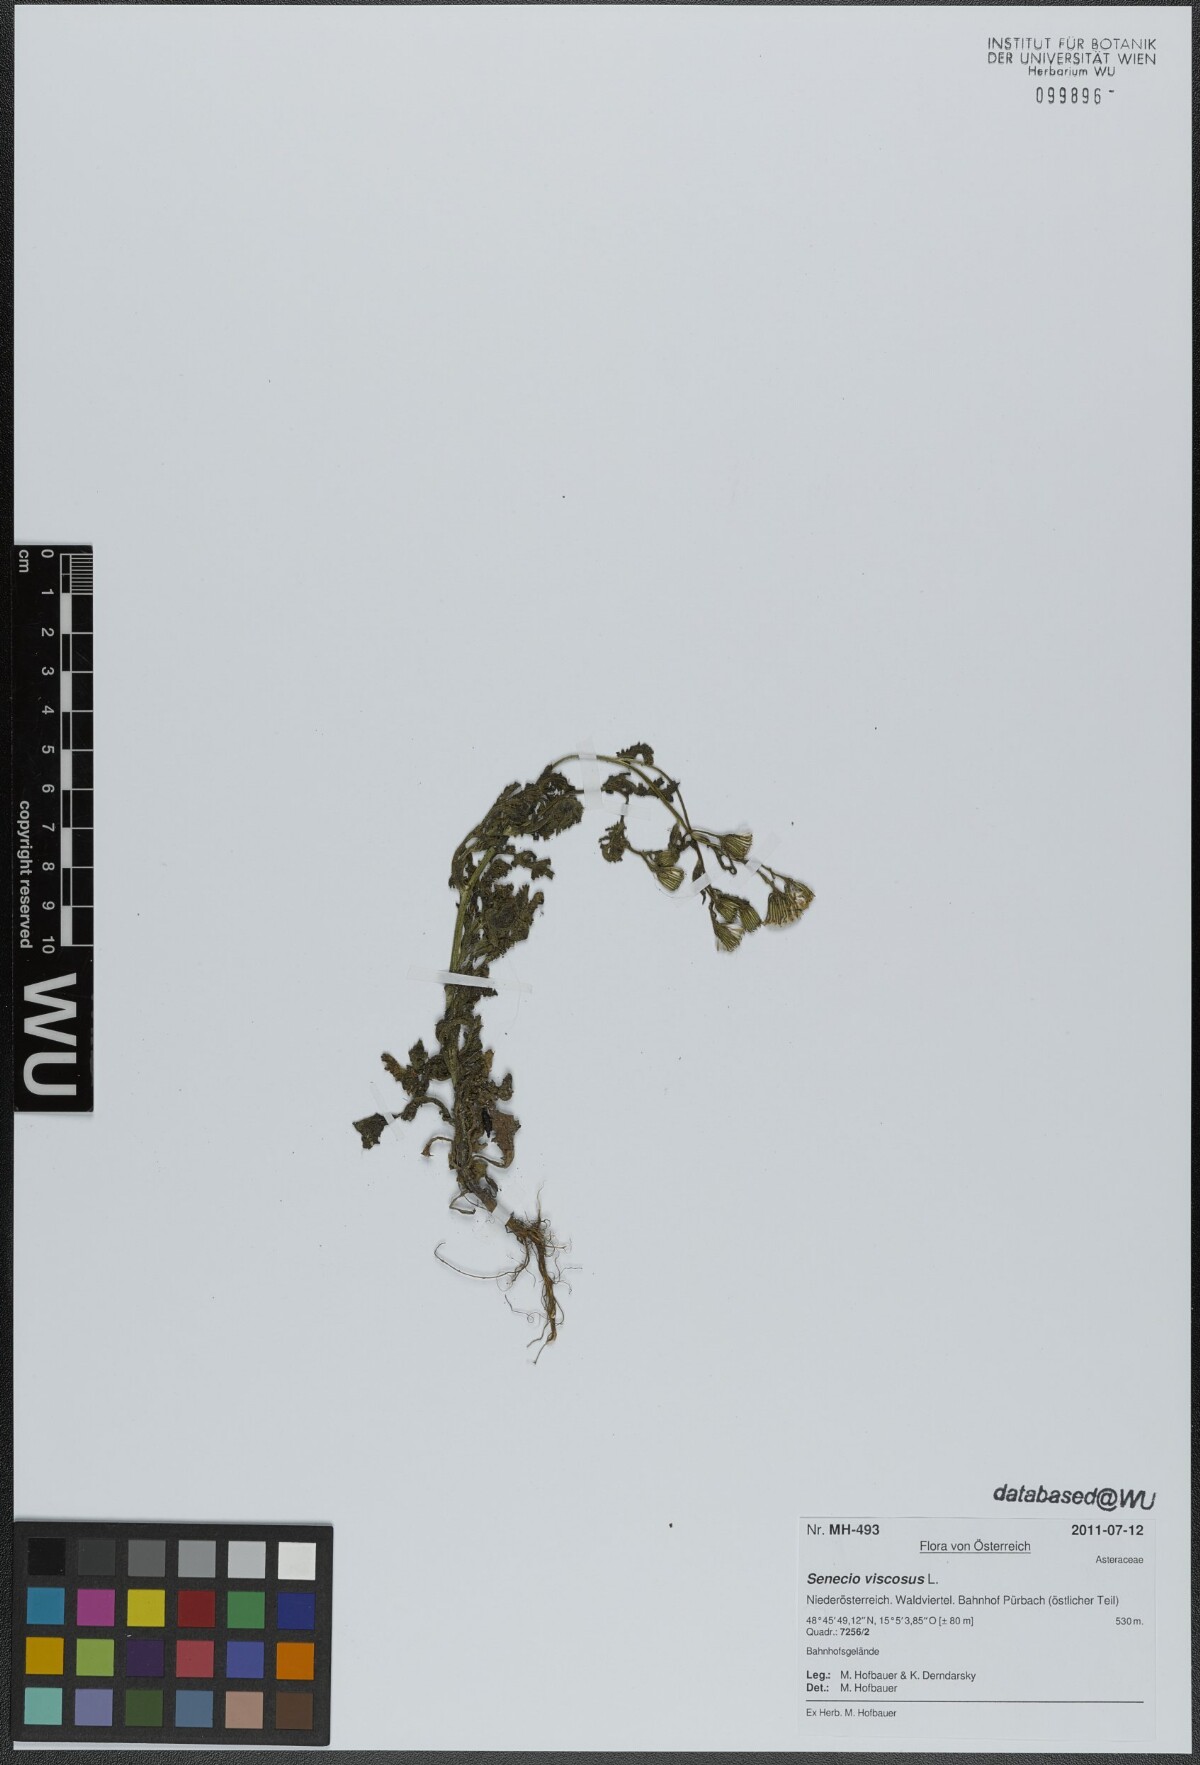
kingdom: Plantae
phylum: Tracheophyta
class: Magnoliopsida
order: Asterales
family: Asteraceae
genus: Senecio
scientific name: Senecio viscosus
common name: Sticky groundsel
